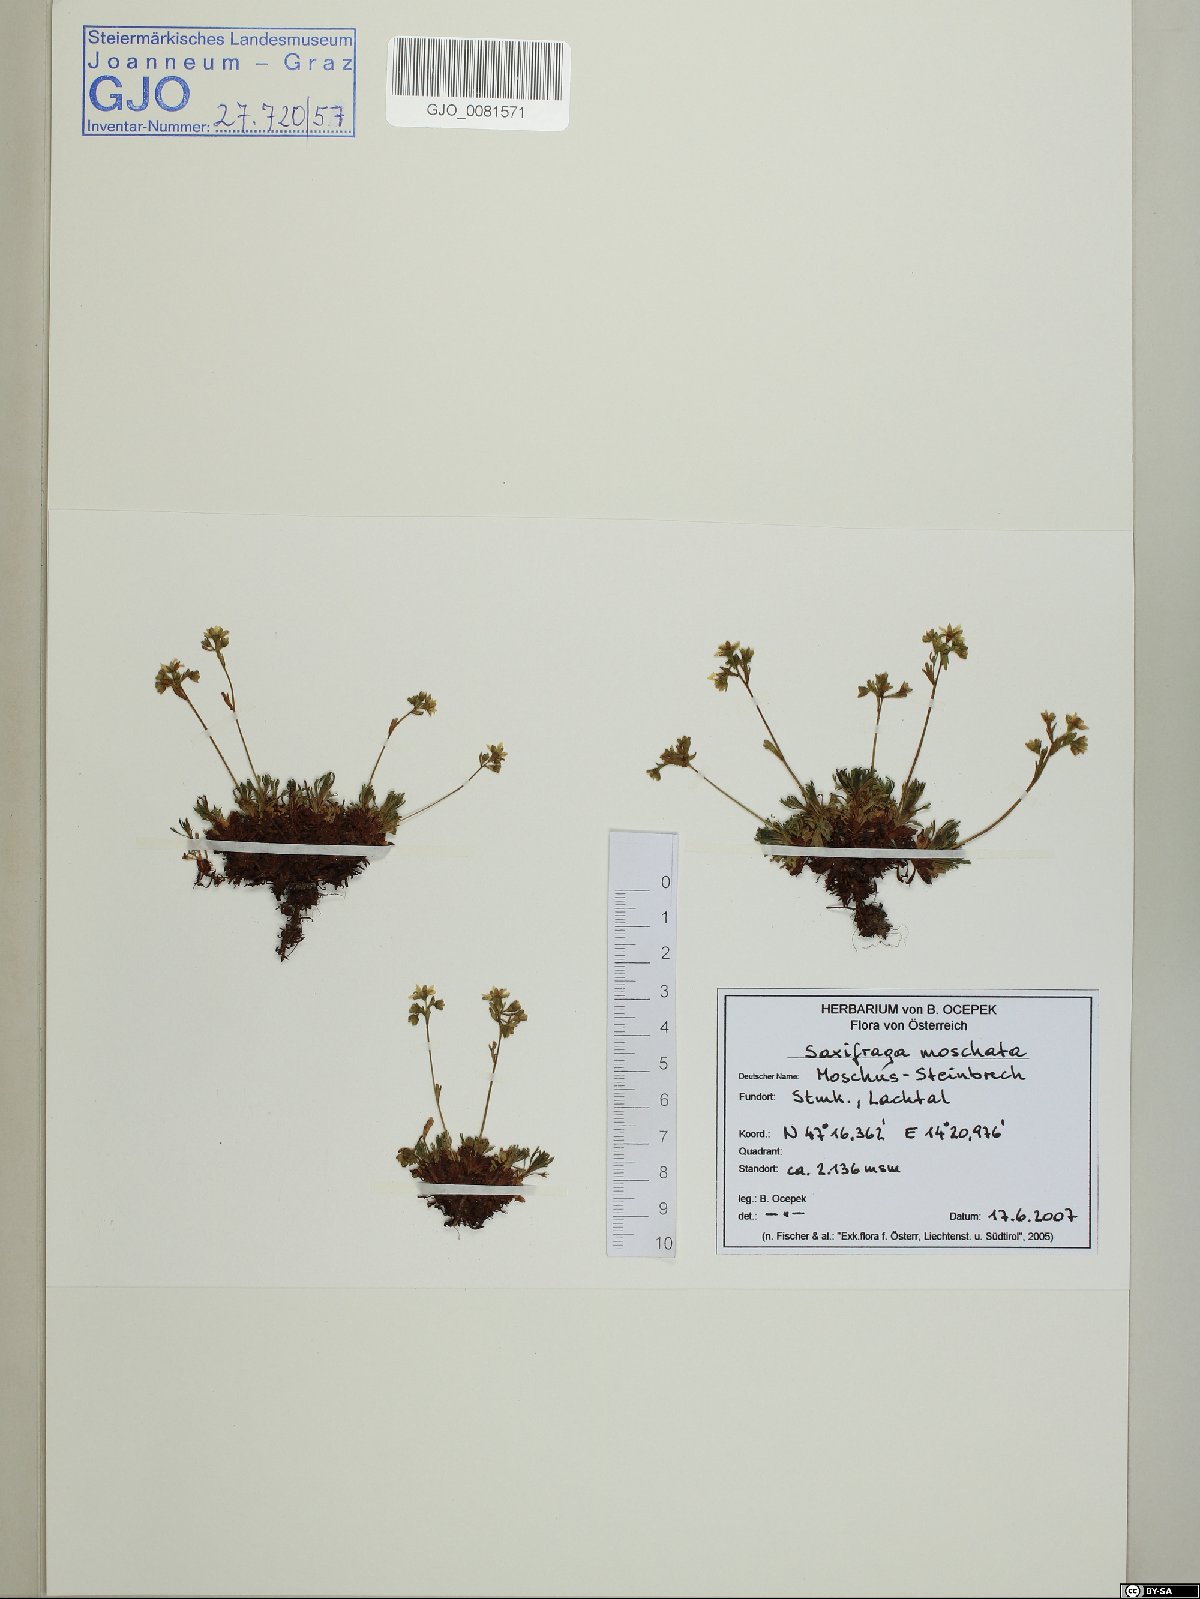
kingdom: Plantae
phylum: Tracheophyta
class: Magnoliopsida
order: Saxifragales
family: Saxifragaceae
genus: Saxifraga
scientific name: Saxifraga moschata
